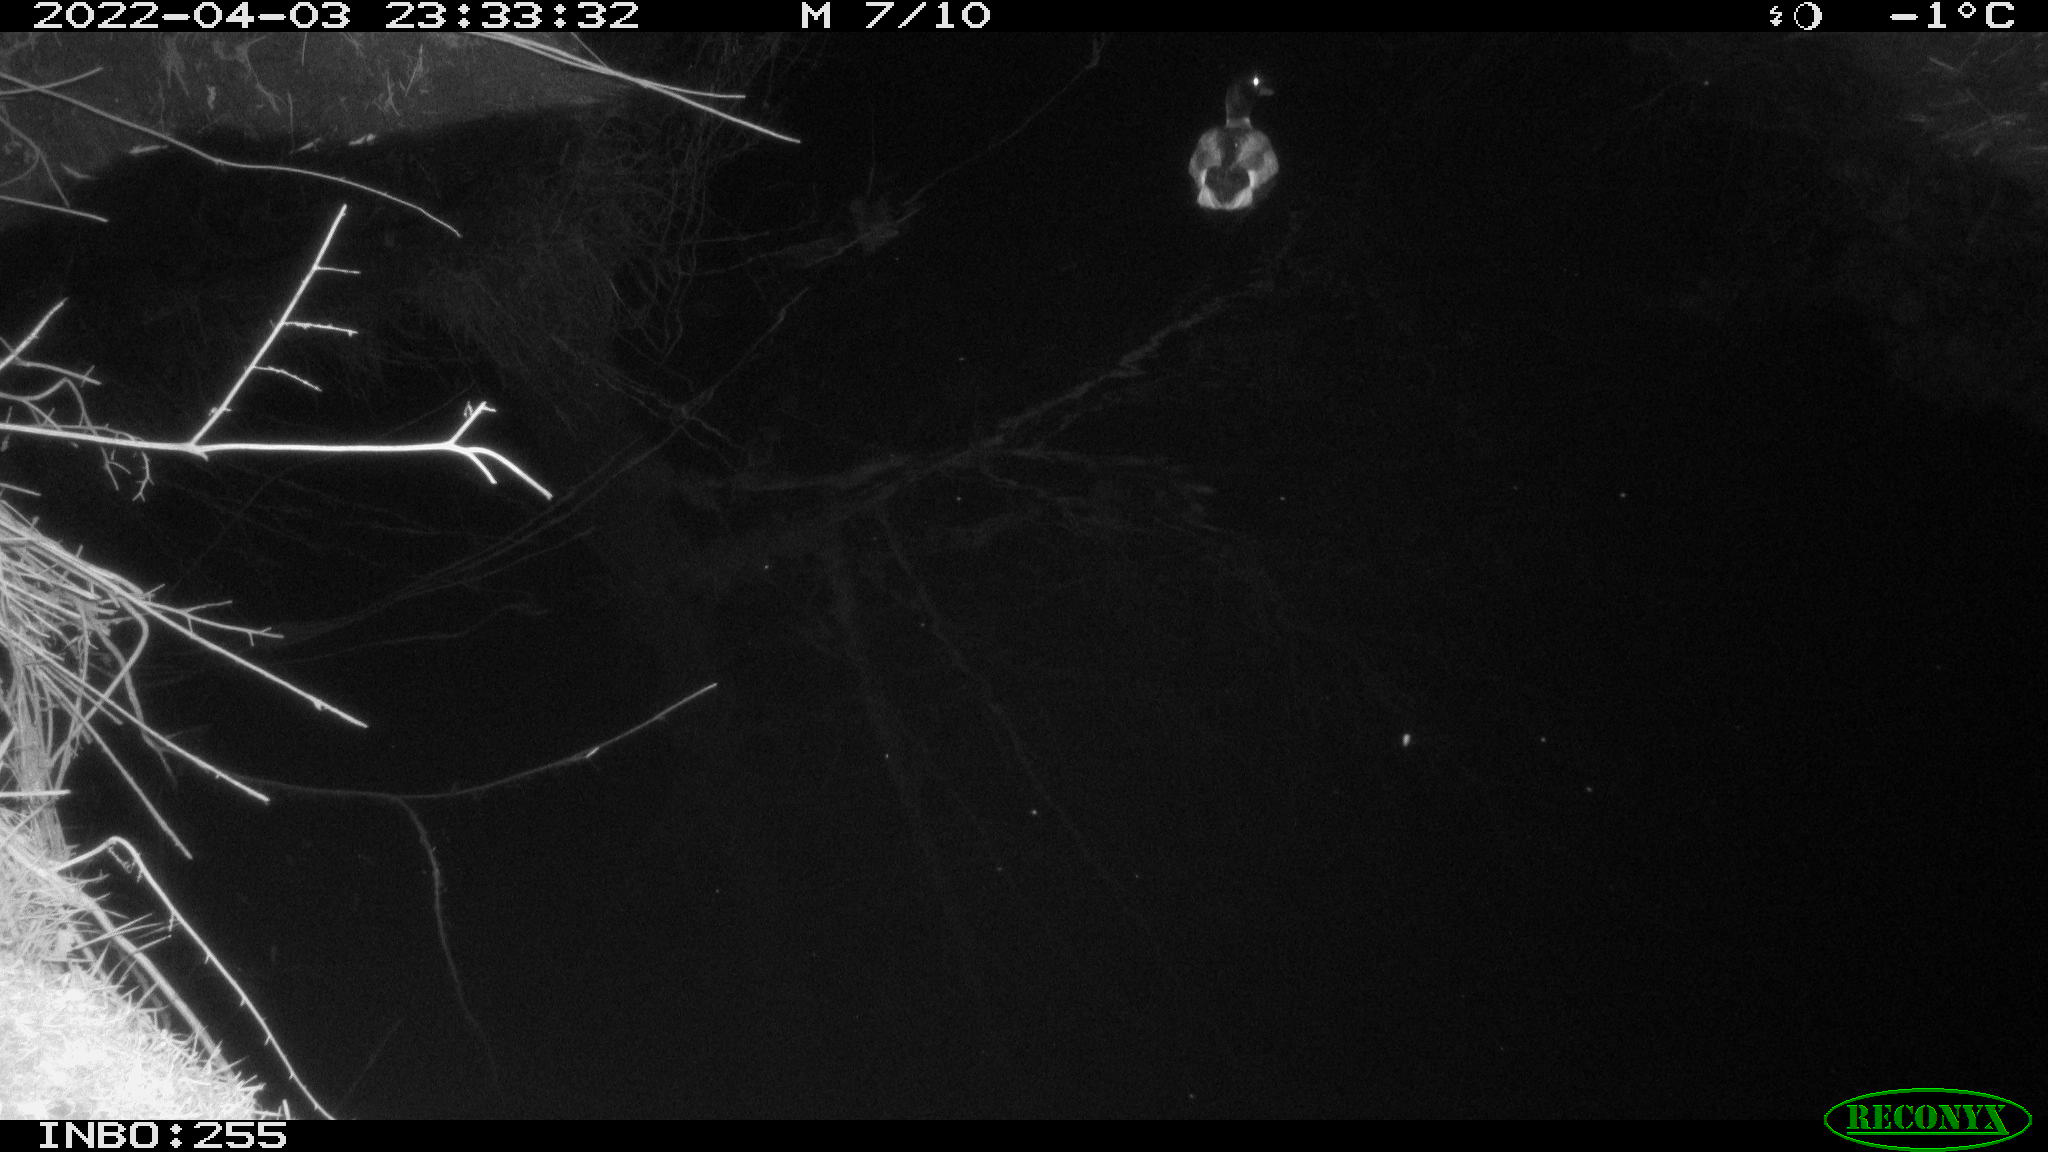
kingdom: Animalia
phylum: Chordata
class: Aves
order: Anseriformes
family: Anatidae
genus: Anas
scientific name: Anas platyrhynchos
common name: Mallard
